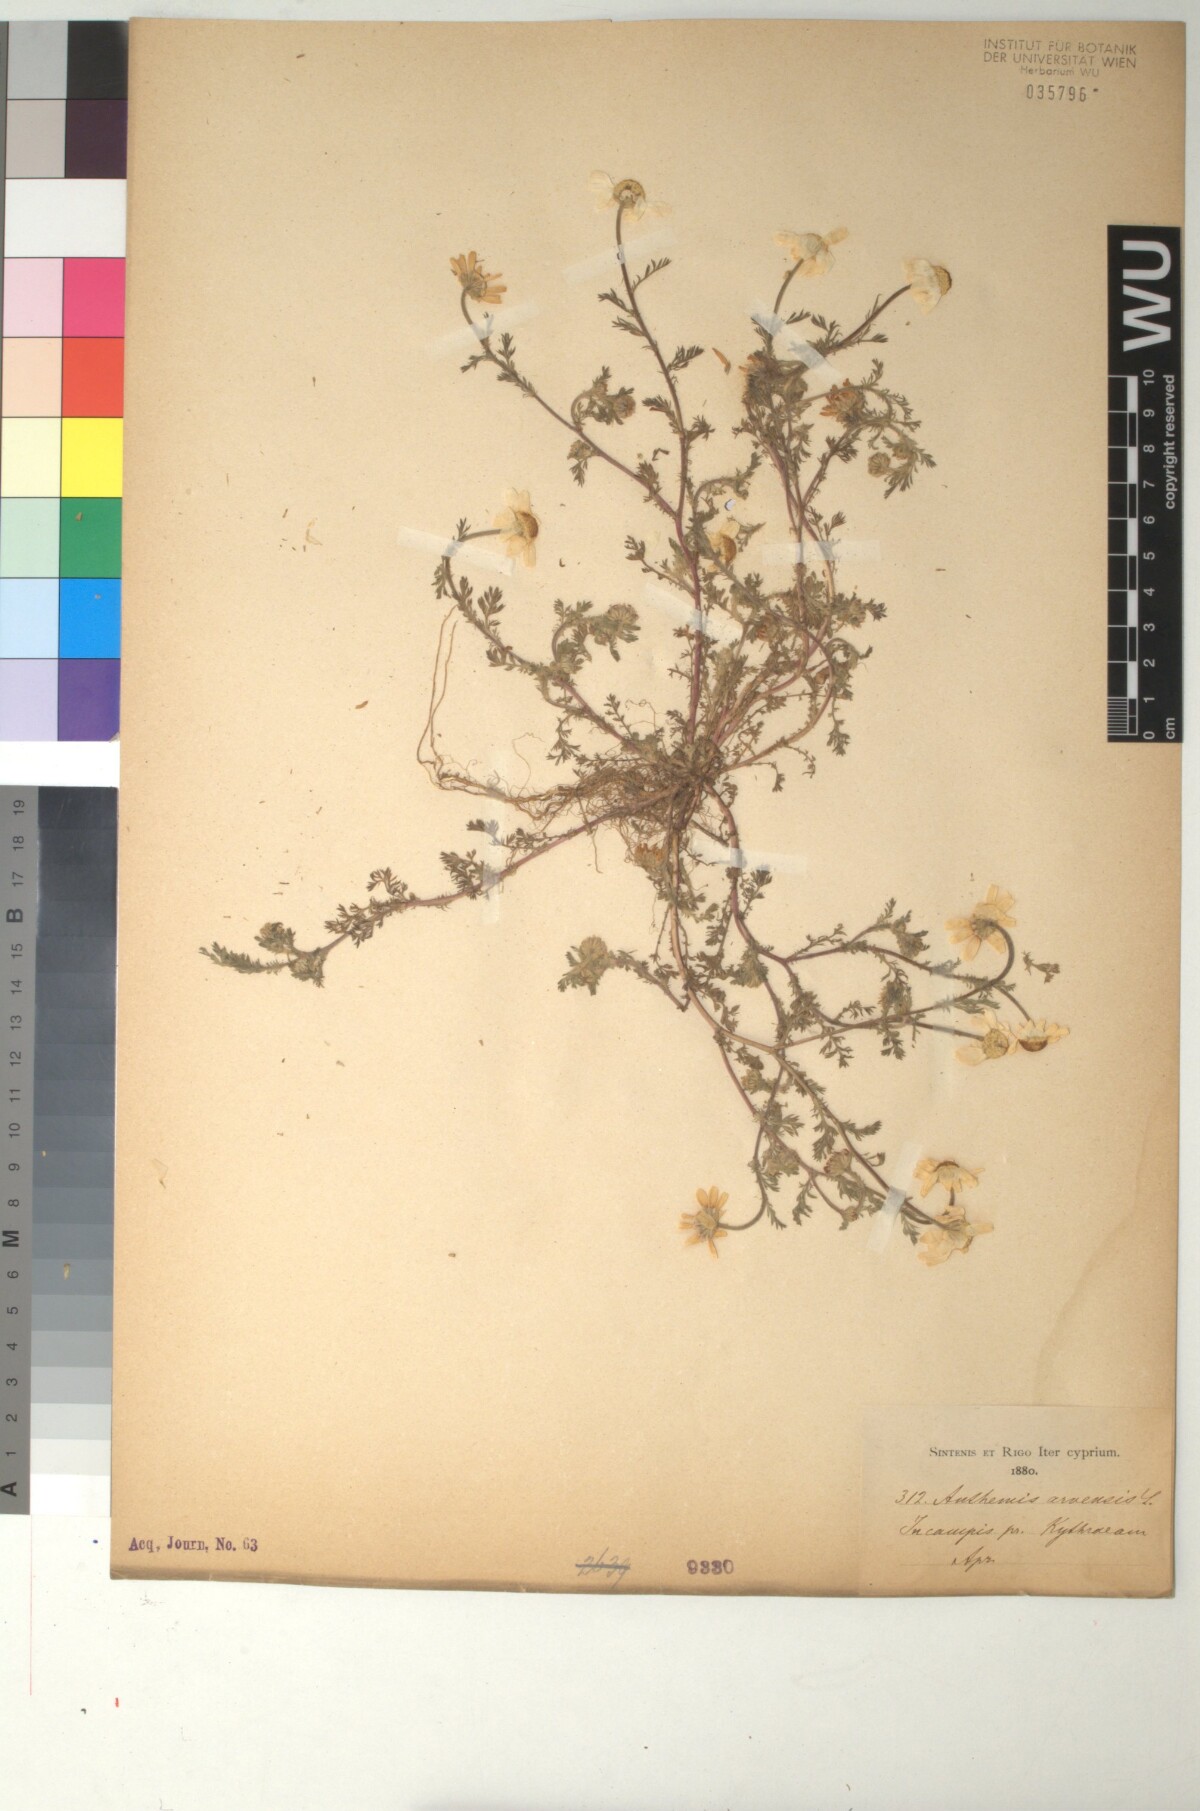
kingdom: Plantae
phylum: Tracheophyta
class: Magnoliopsida
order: Asterales
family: Asteraceae
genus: Anthemis
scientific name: Anthemis arvensis
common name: Corn chamomile
